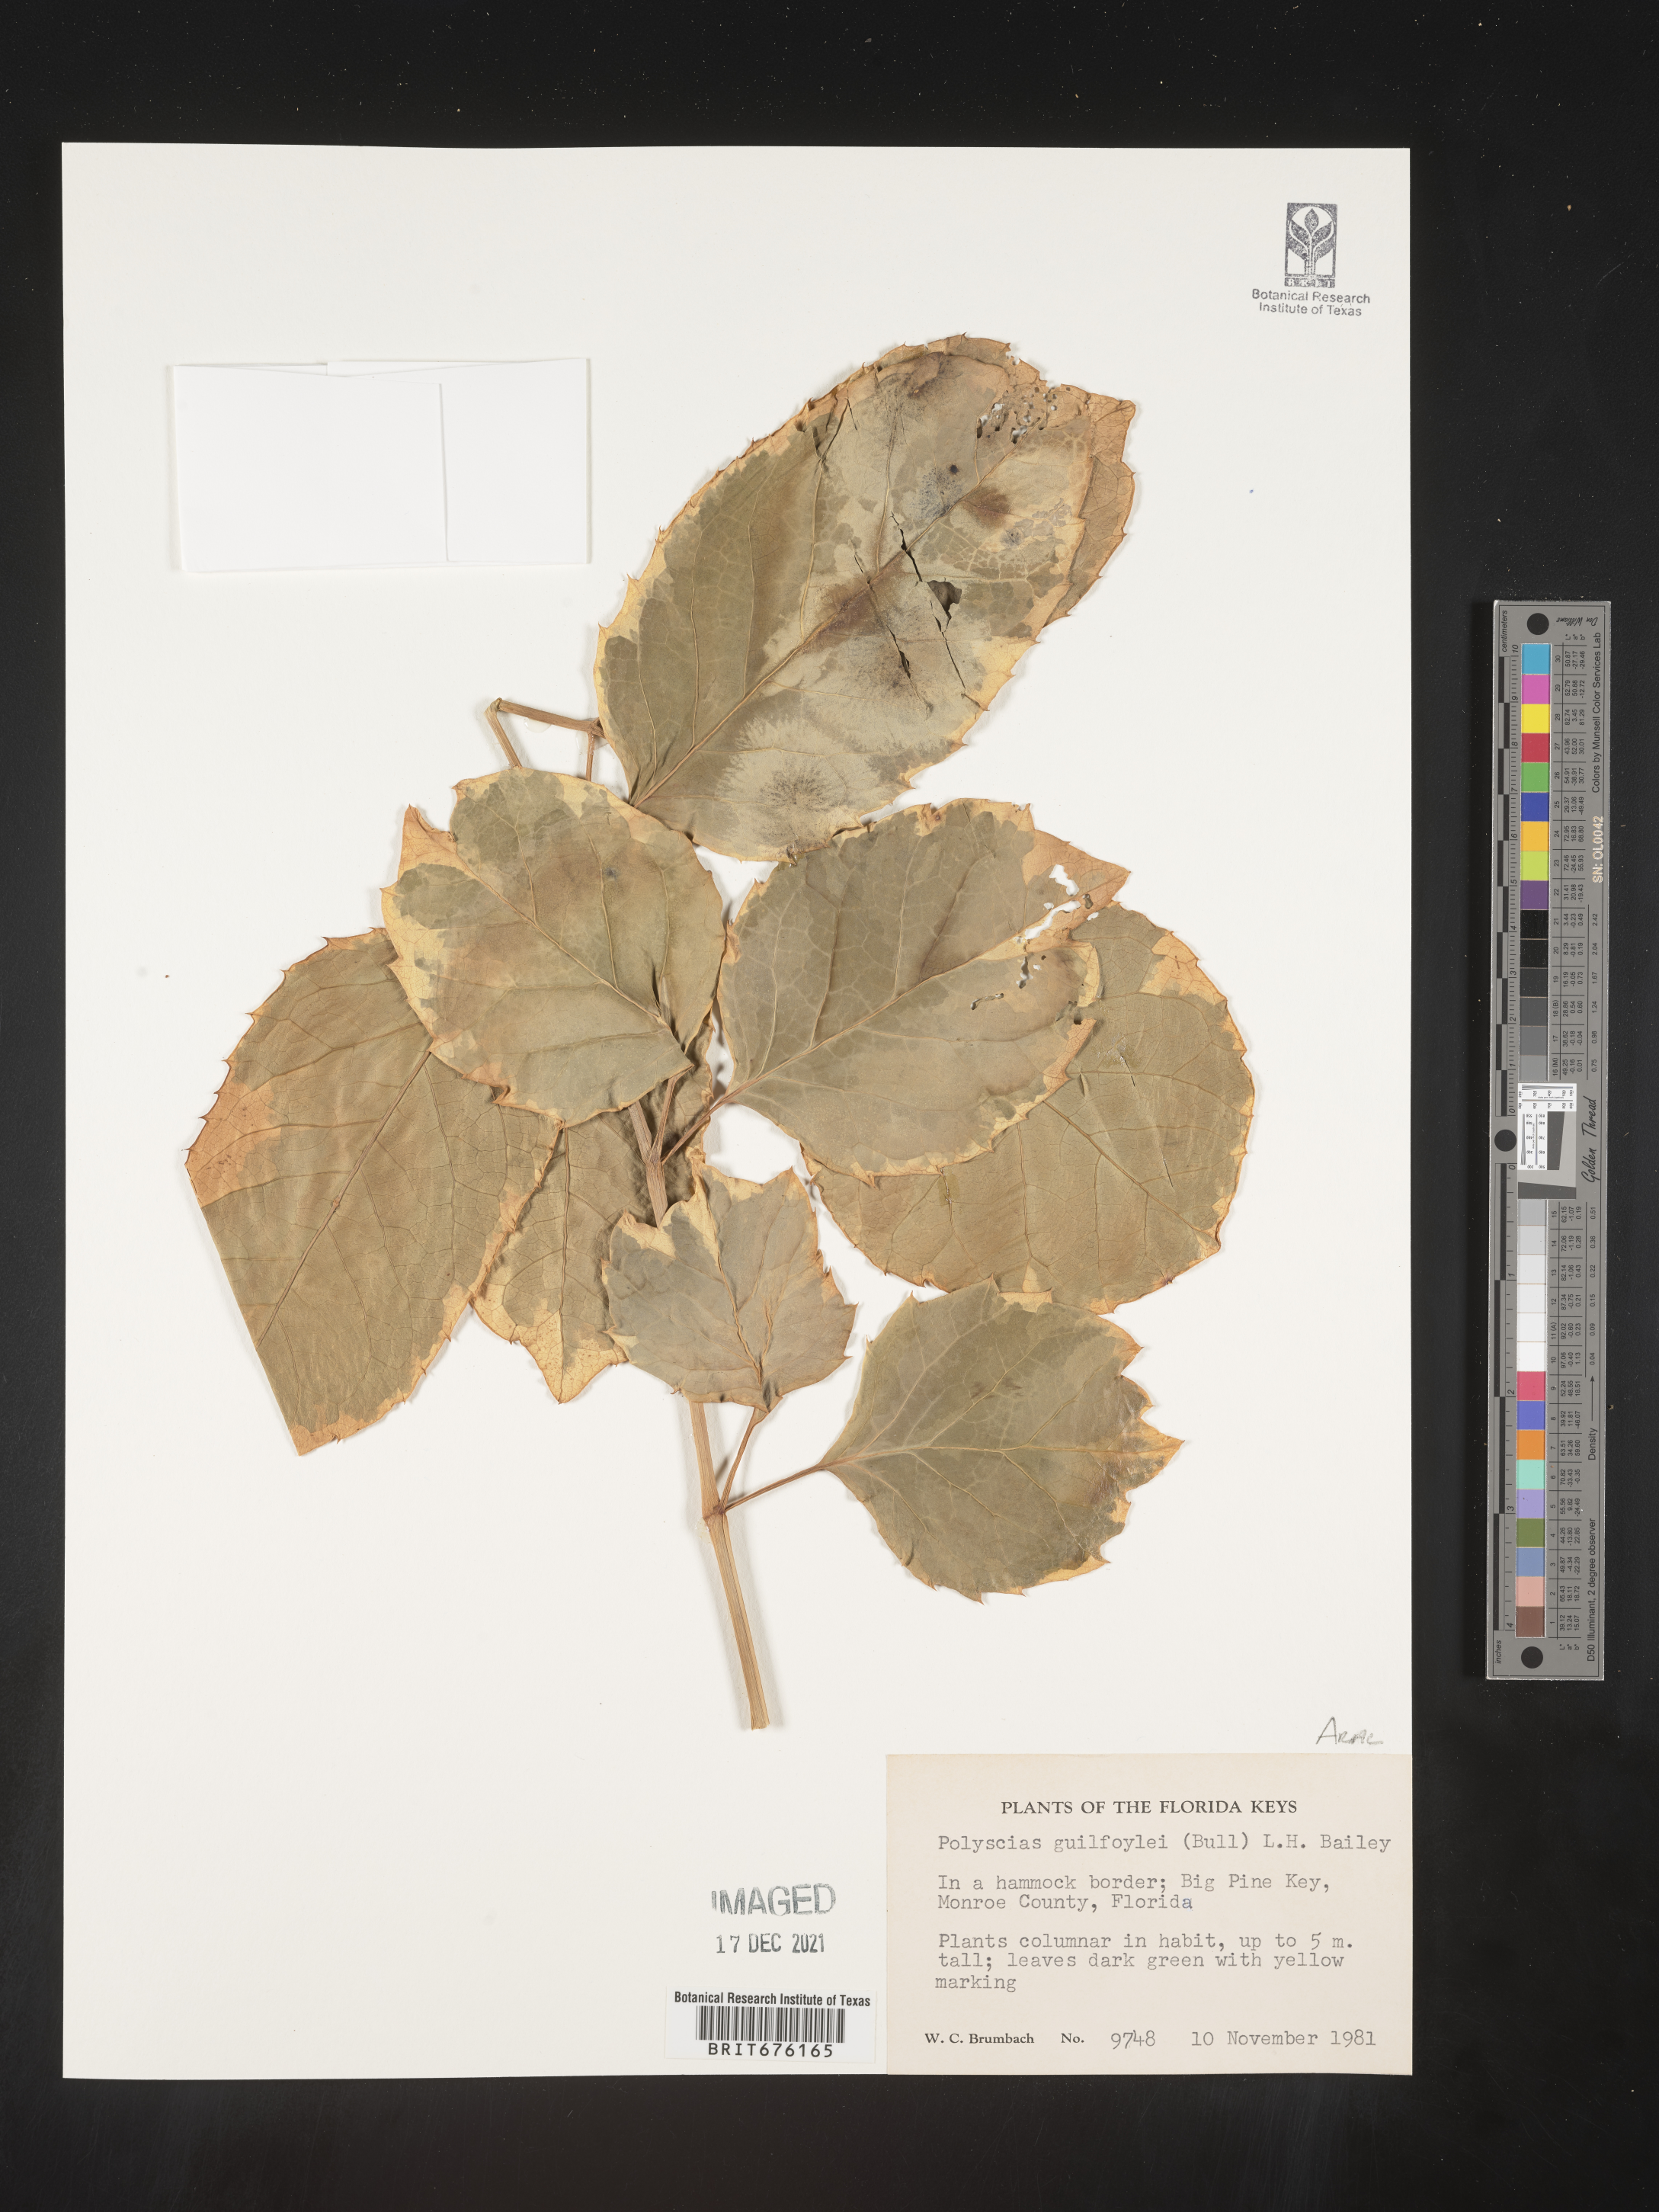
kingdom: Plantae
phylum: Tracheophyta
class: Magnoliopsida
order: Apiales
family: Araliaceae
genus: Polyscias
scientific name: Polyscias
